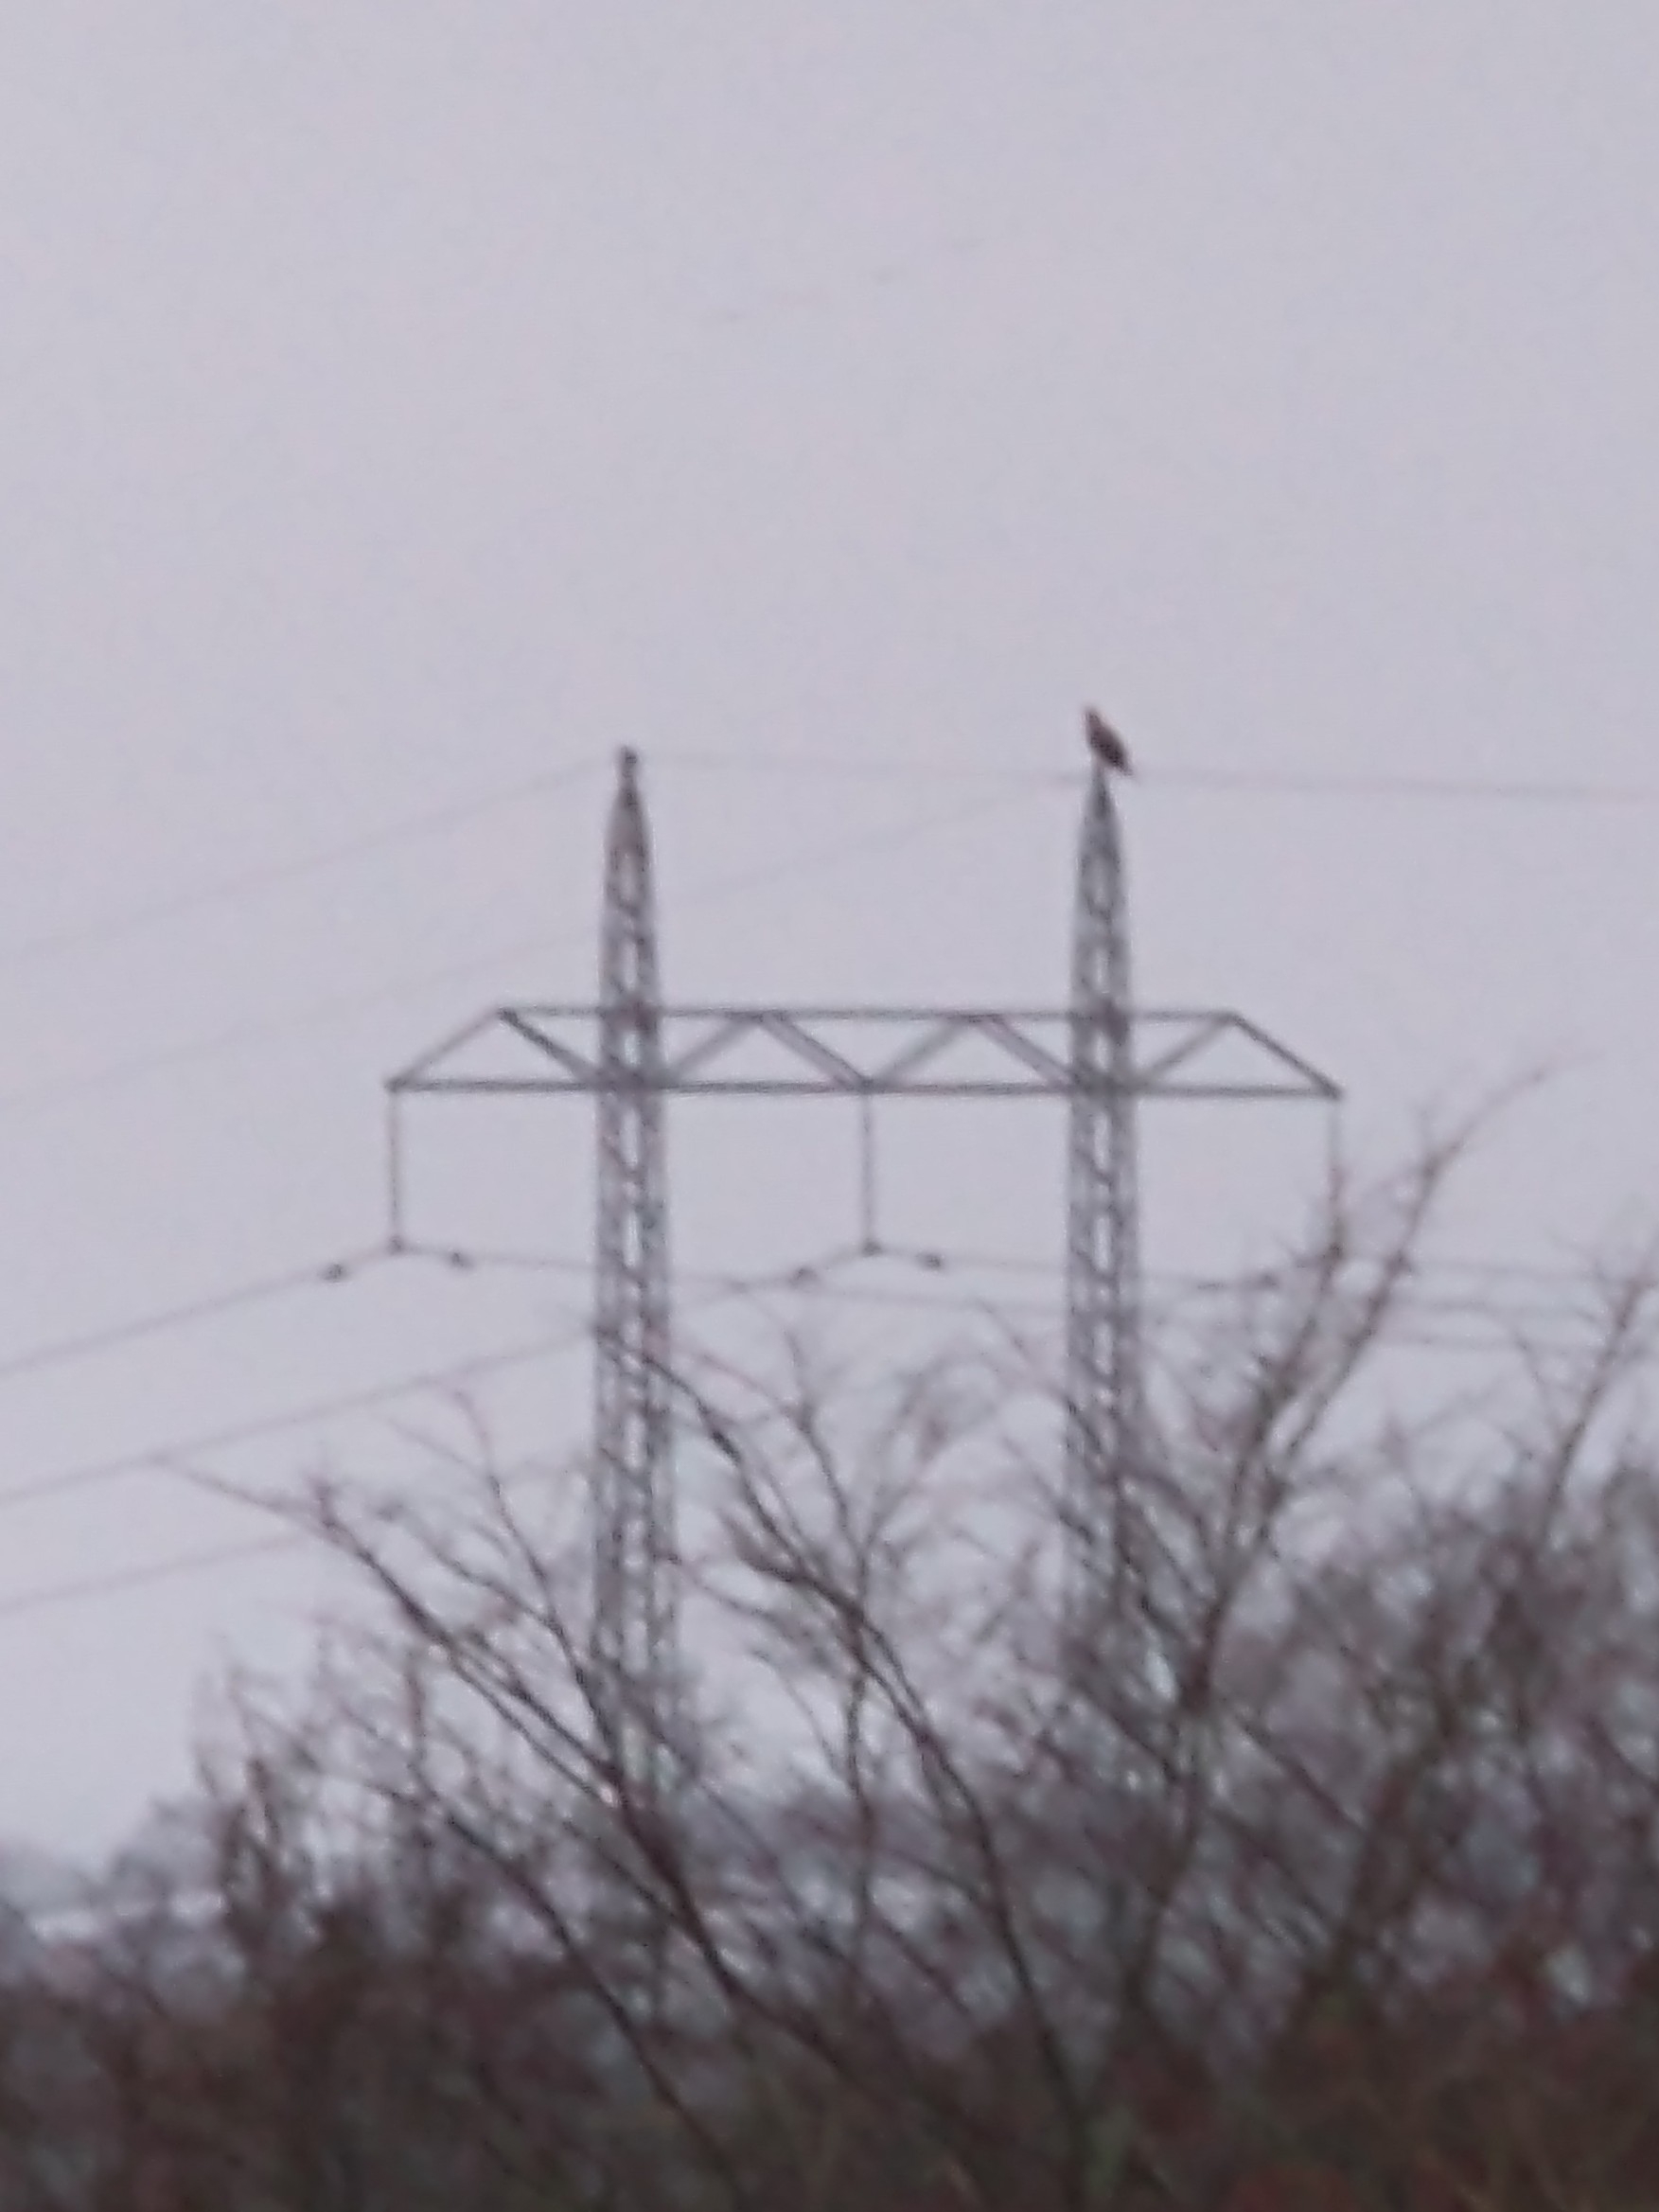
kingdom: Animalia
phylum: Chordata
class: Aves
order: Accipitriformes
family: Accipitridae
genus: Haliaeetus
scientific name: Haliaeetus albicilla
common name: Havørn
